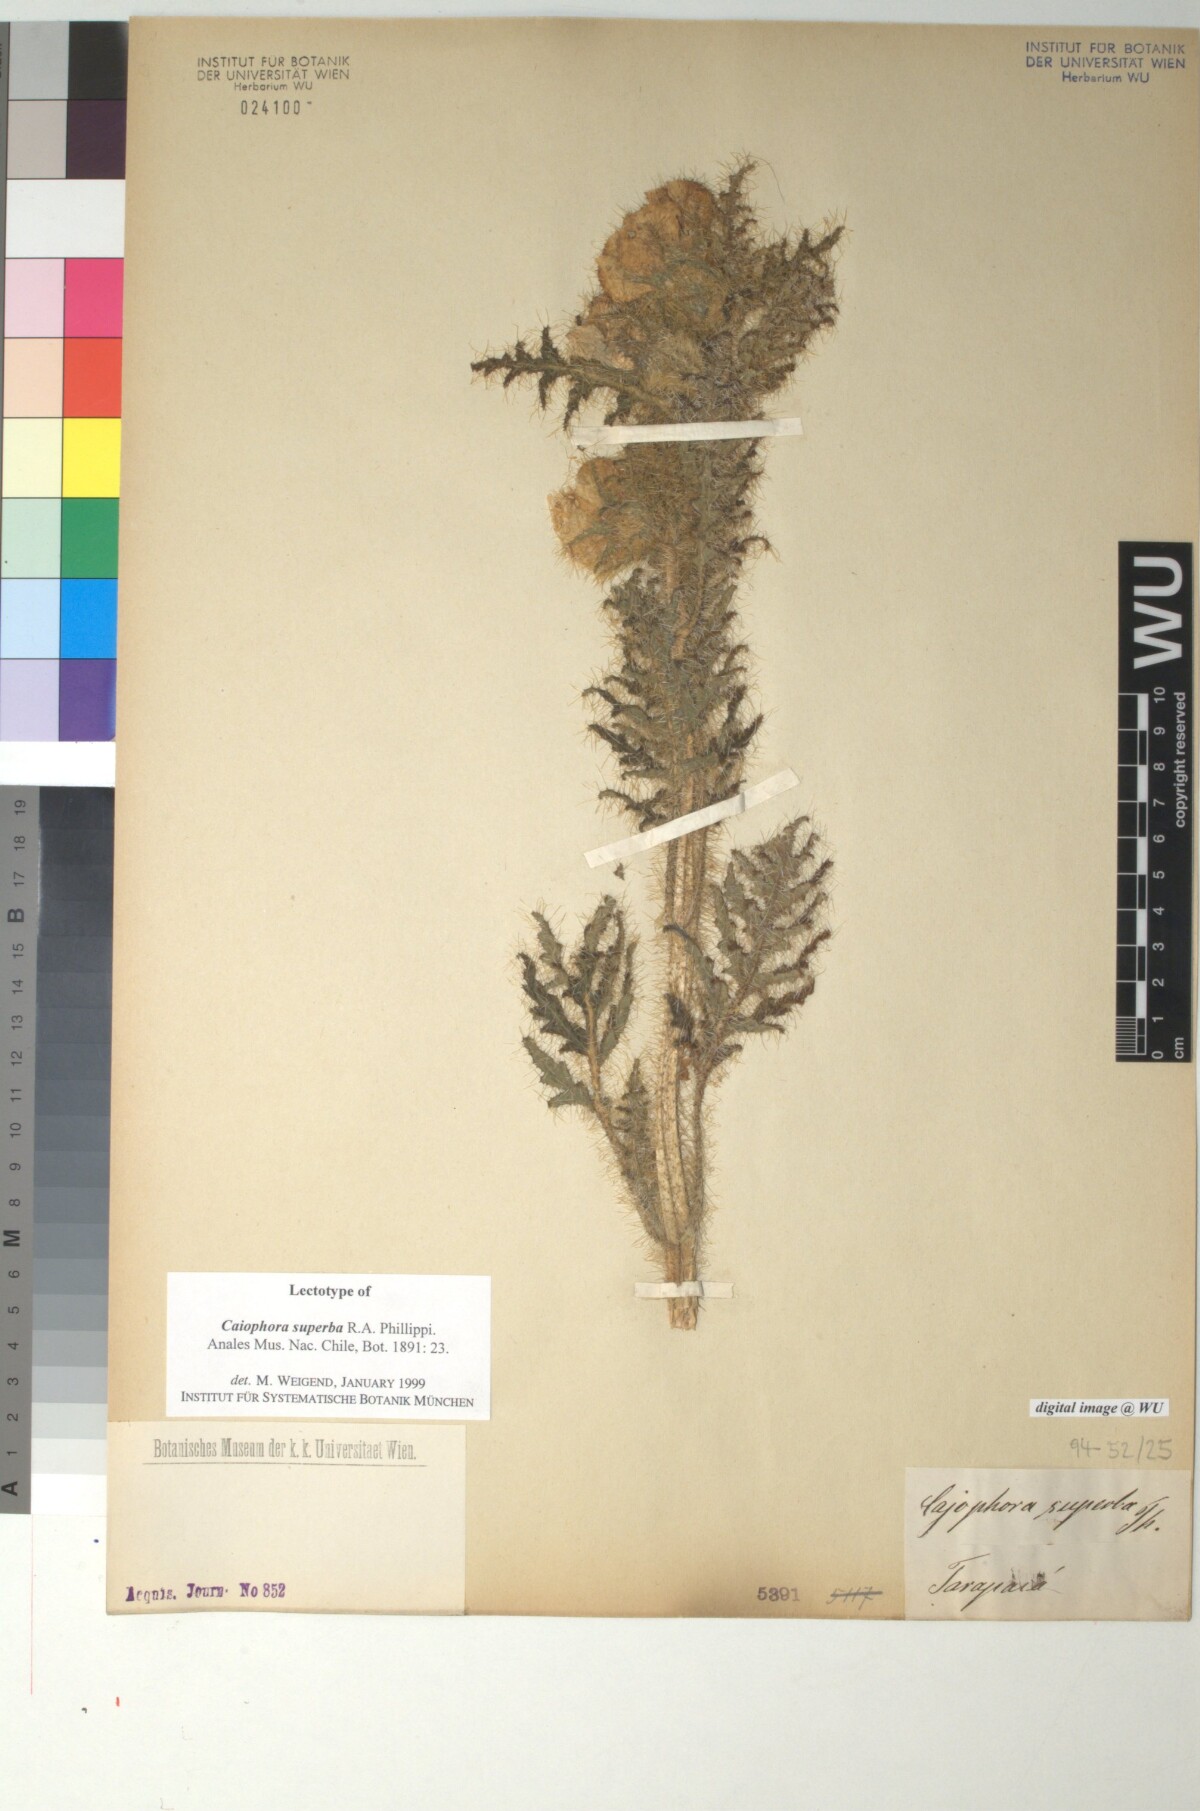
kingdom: Plantae
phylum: Tracheophyta
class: Magnoliopsida
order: Cornales
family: Loasaceae
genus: Caiophora
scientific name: Caiophora chuquitensis
